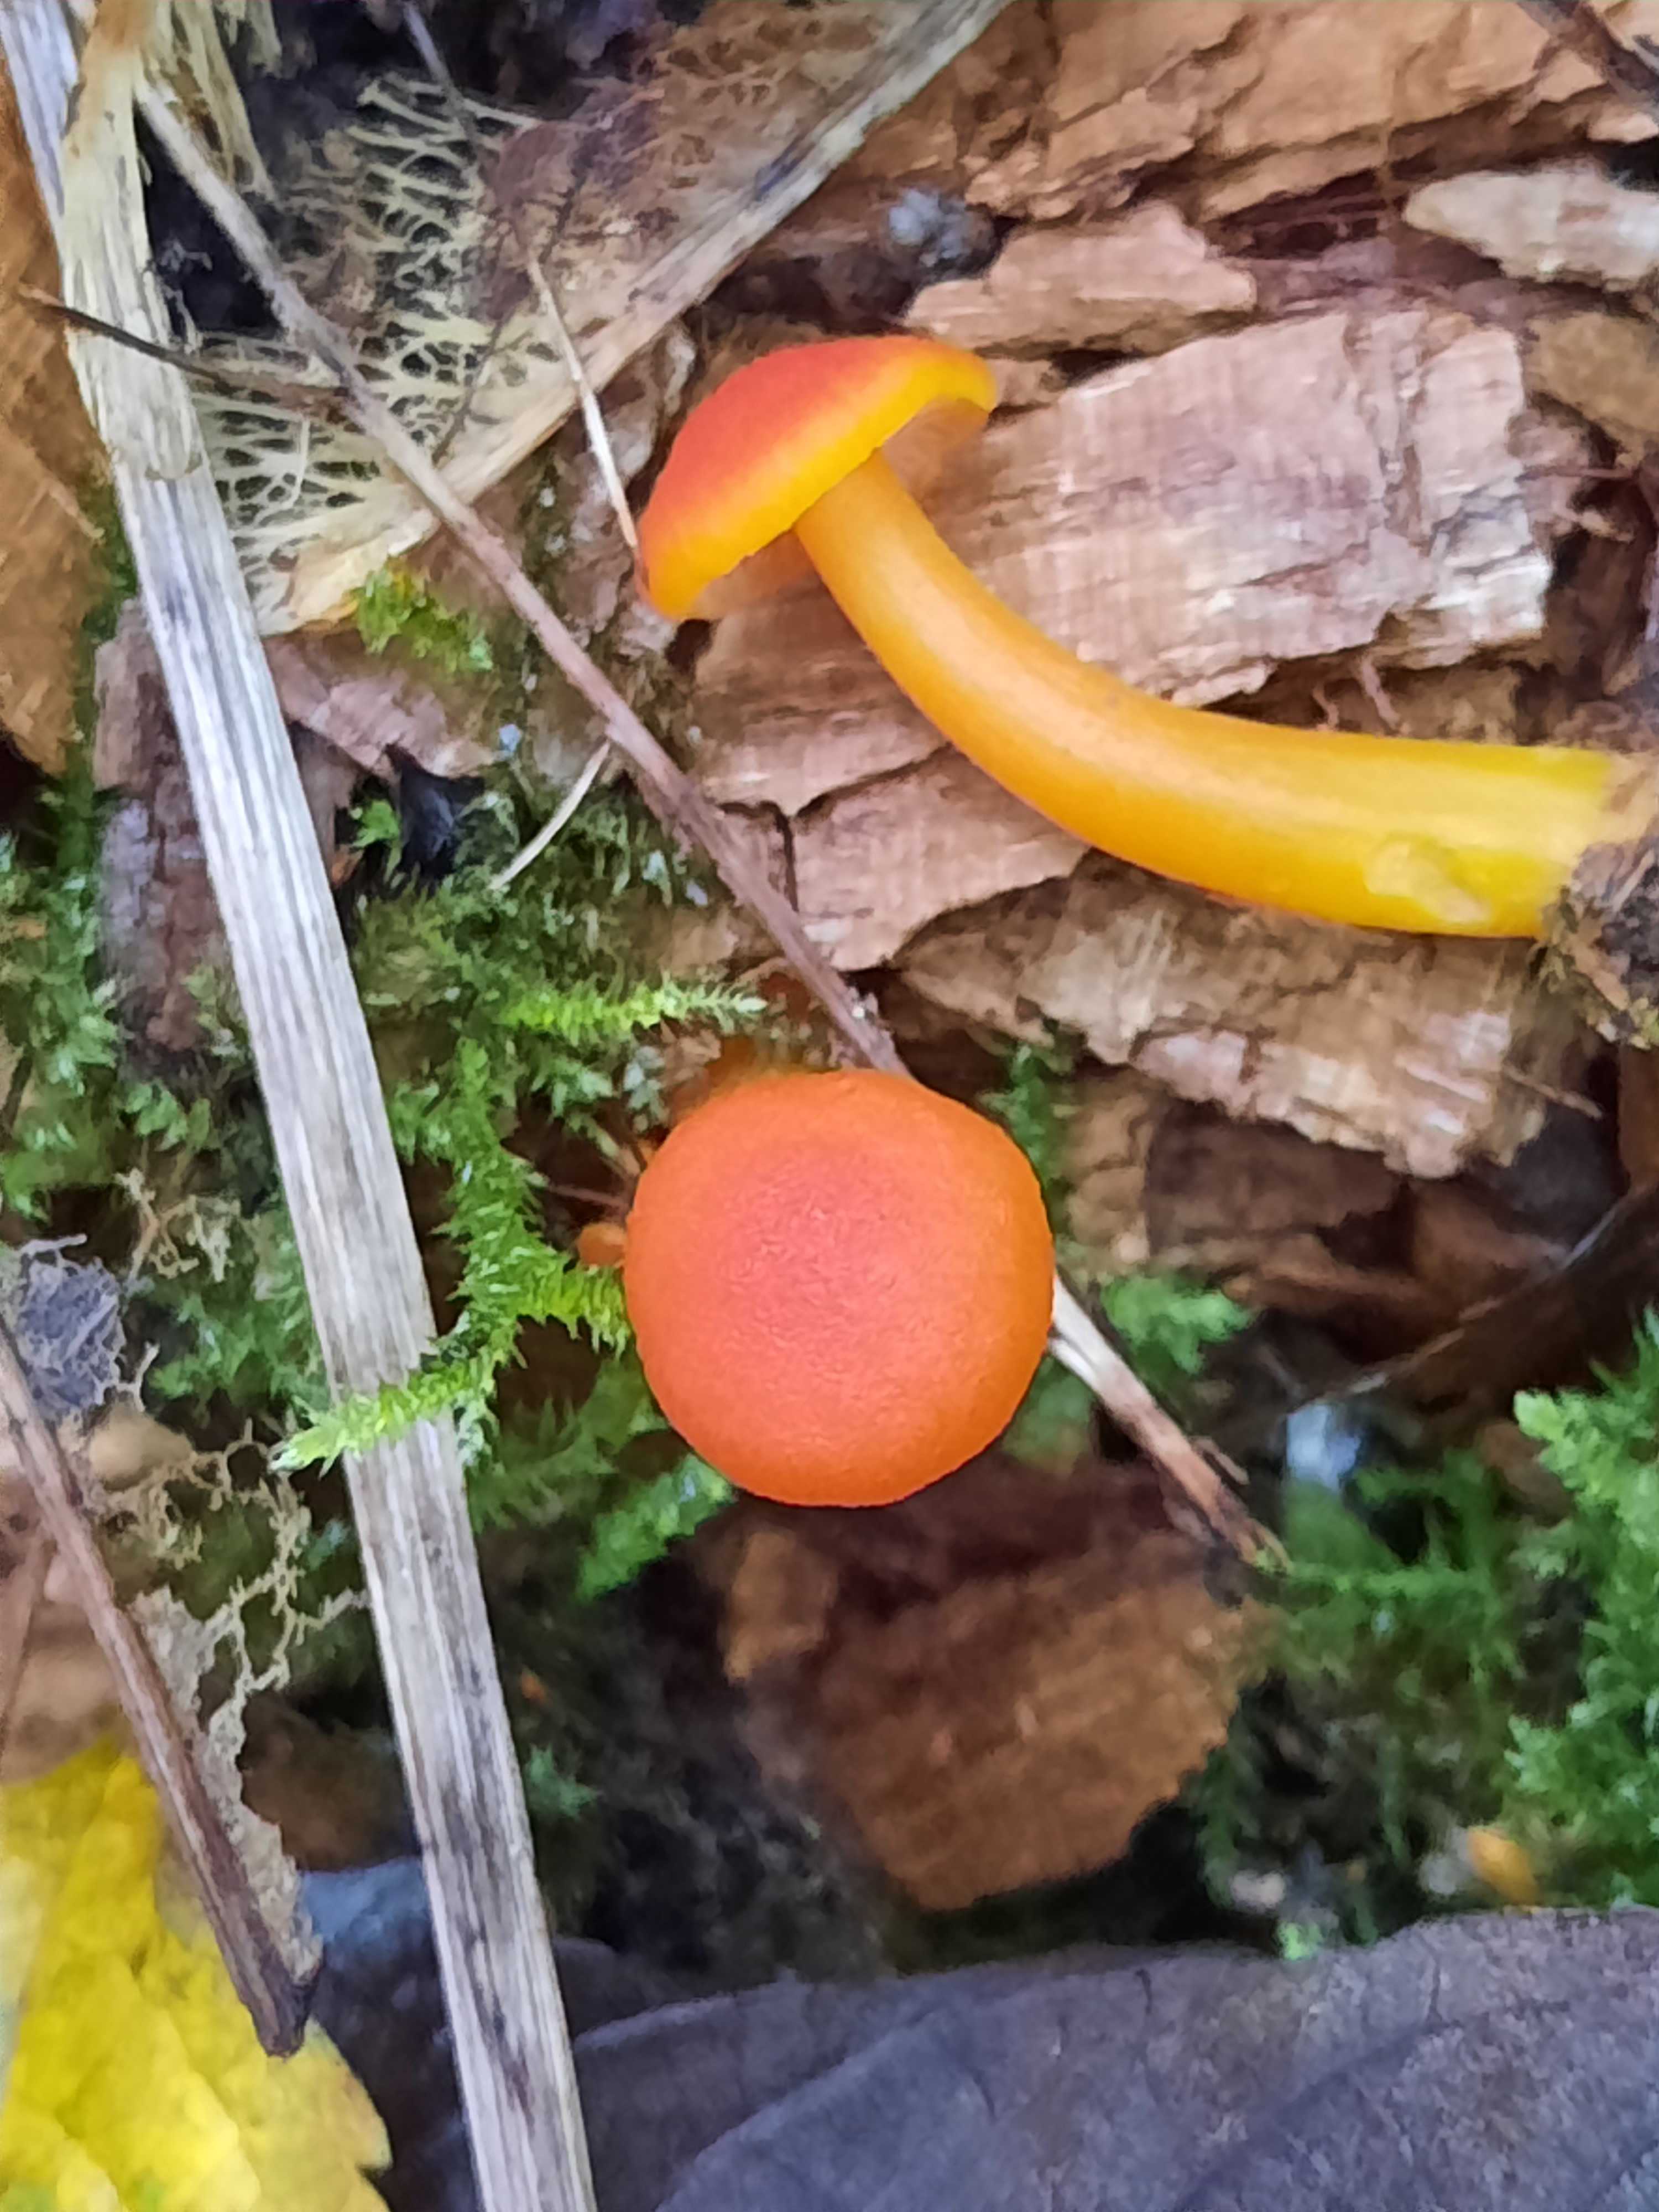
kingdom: Fungi
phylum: Basidiomycota
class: Agaricomycetes
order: Agaricales
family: Hygrophoraceae
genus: Hygrocybe
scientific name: Hygrocybe miniata
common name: mønje-vokshat
